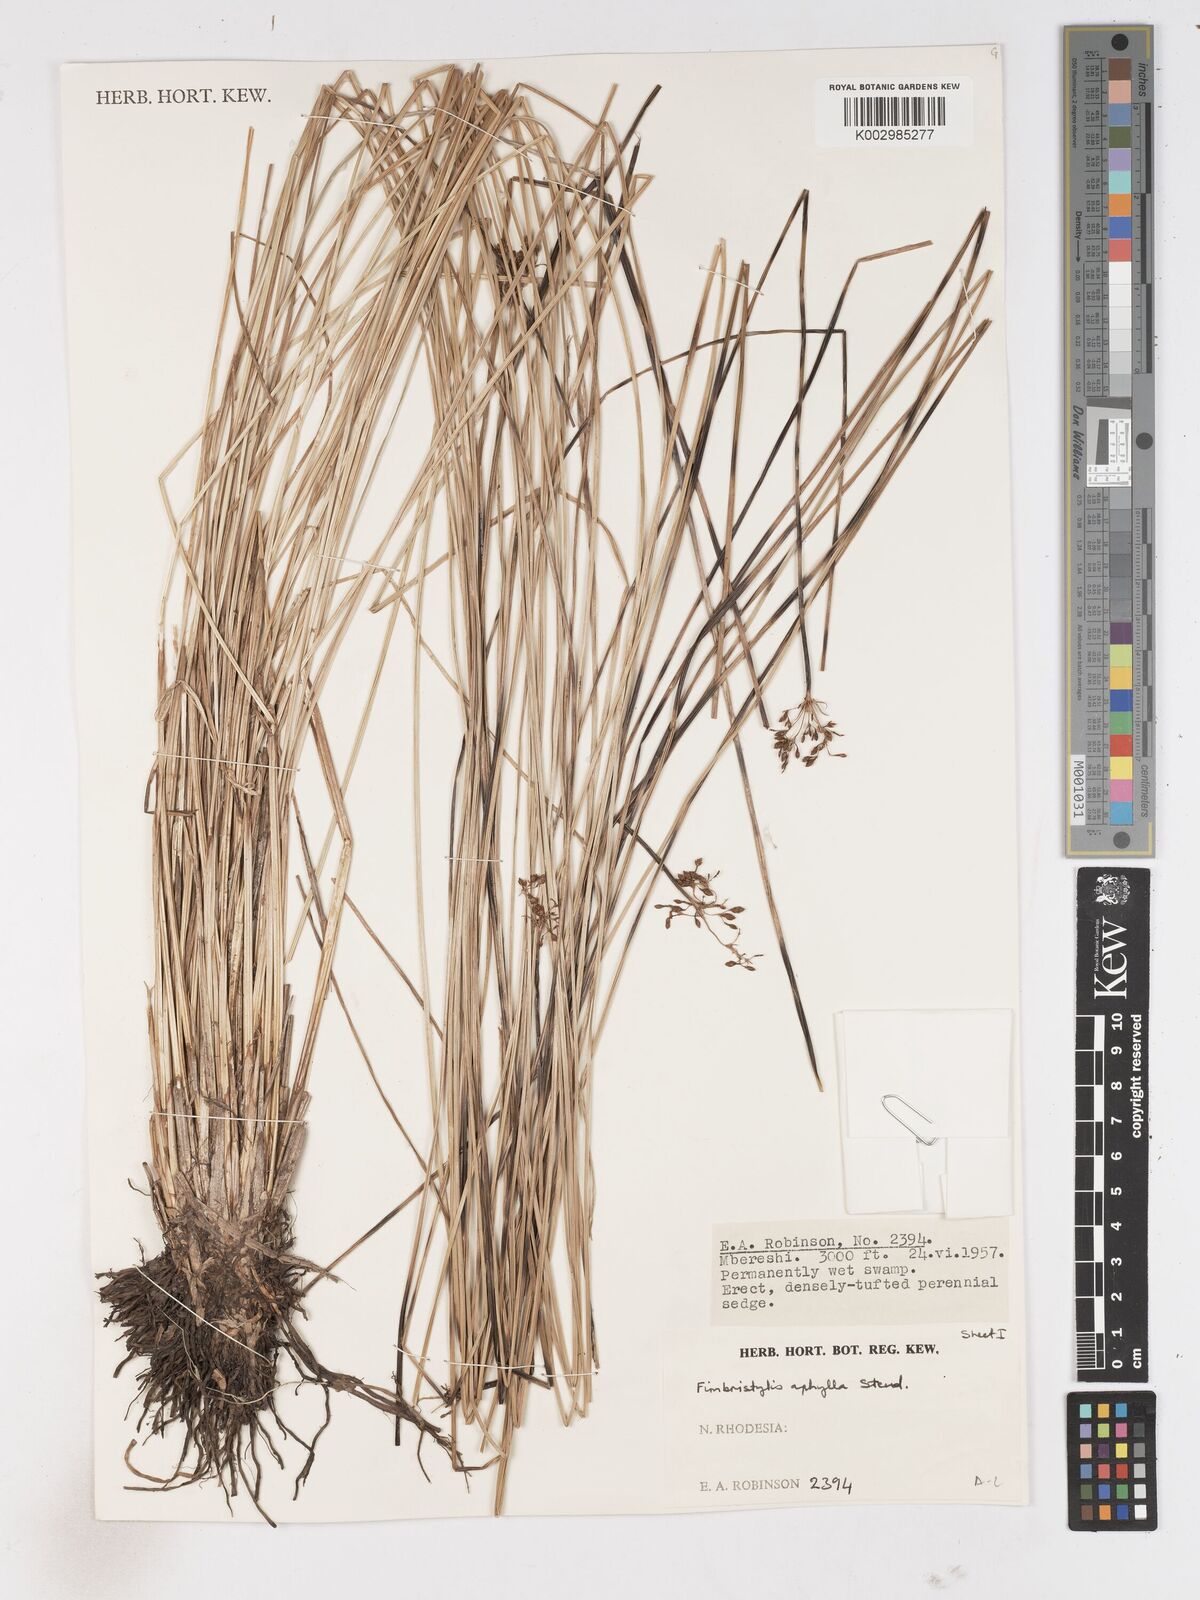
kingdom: Plantae
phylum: Tracheophyta
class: Liliopsida
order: Poales
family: Cyperaceae
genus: Fimbristylis
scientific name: Fimbristylis aphylla
